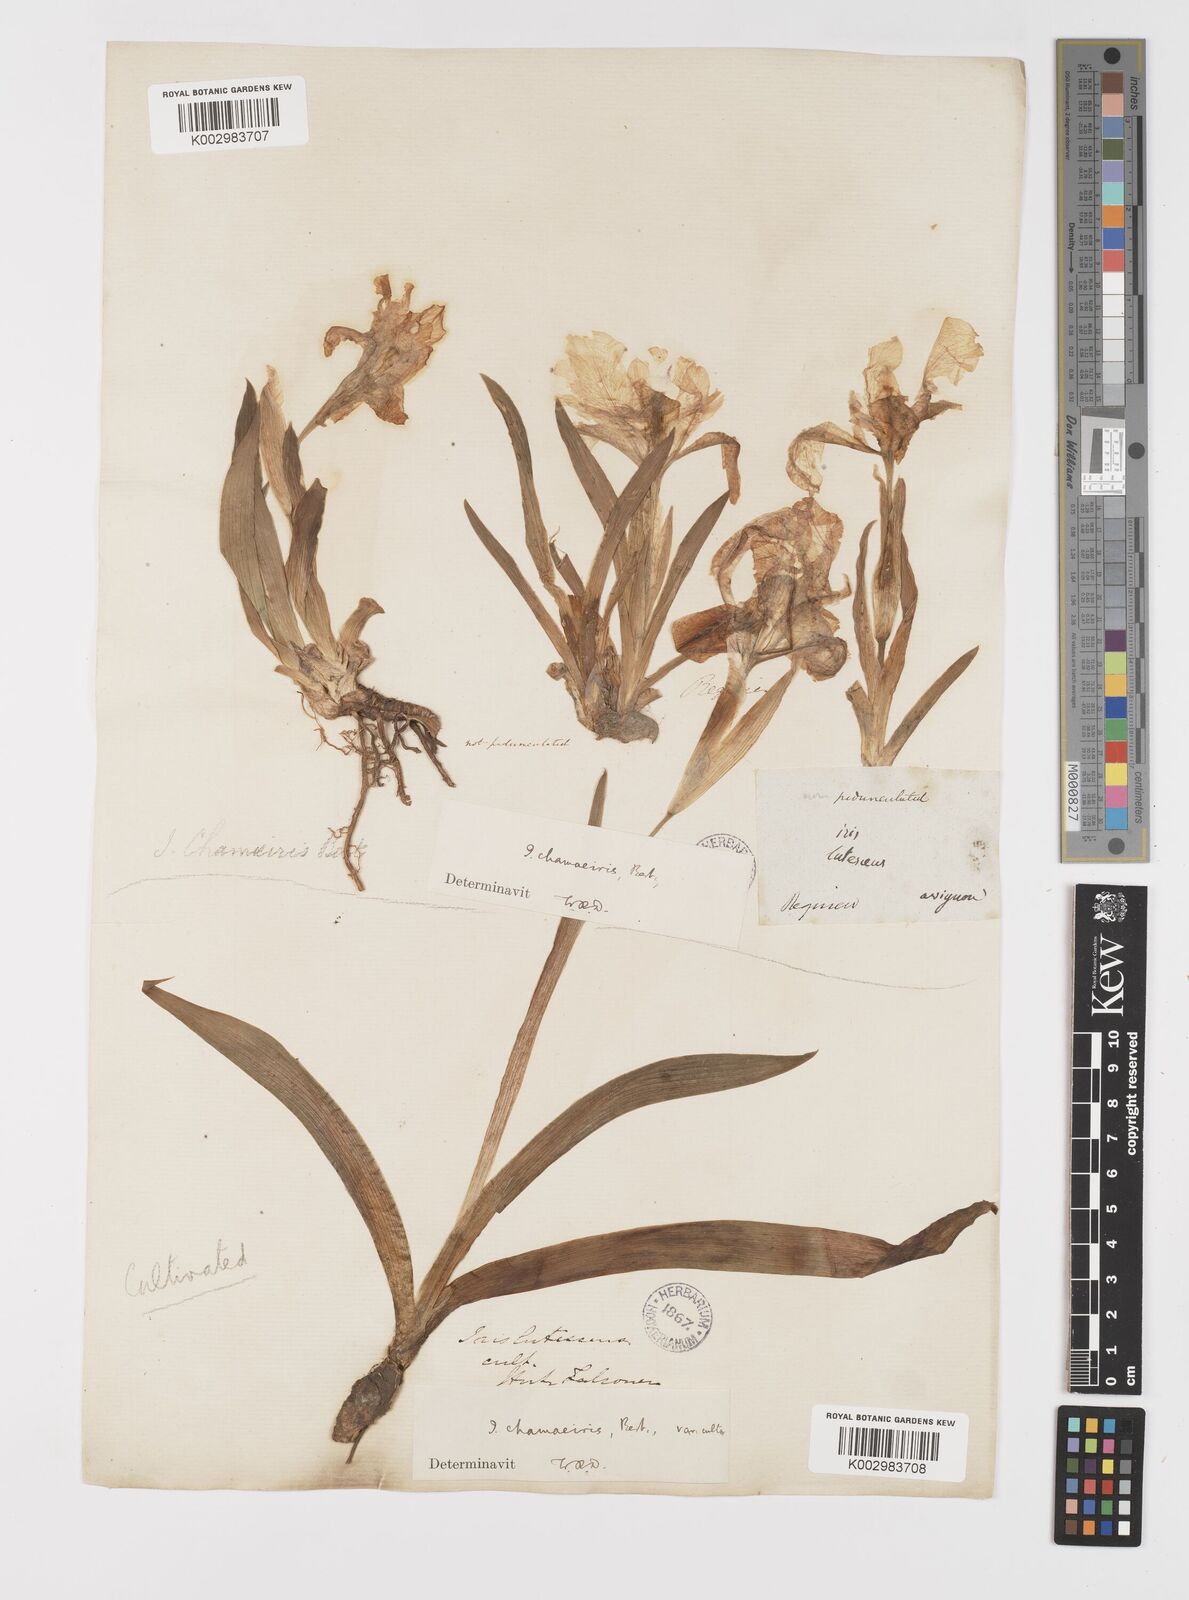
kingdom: Plantae
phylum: Tracheophyta
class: Liliopsida
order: Asparagales
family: Iridaceae
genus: Iris
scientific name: Iris lutescens
